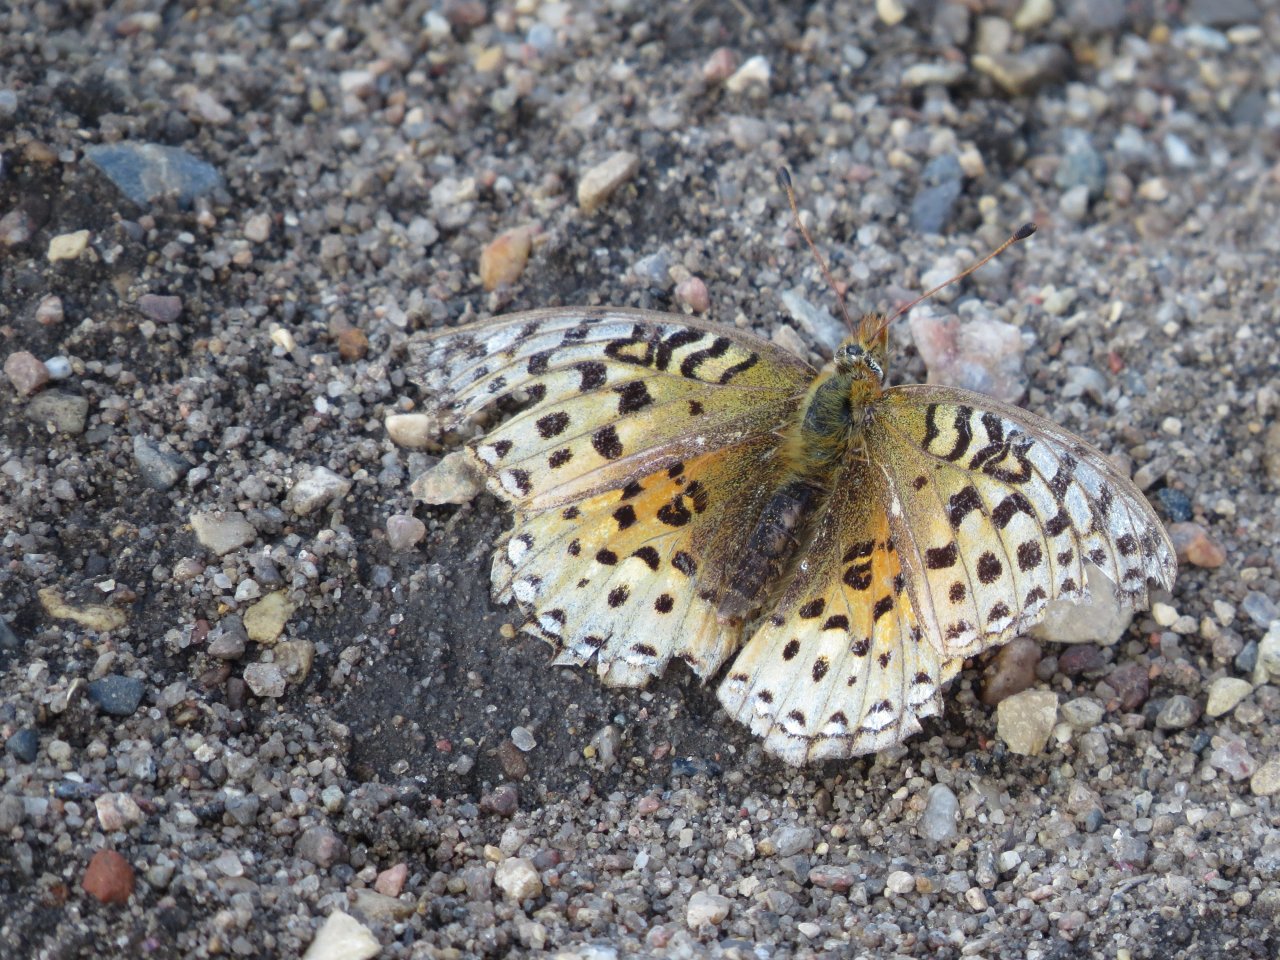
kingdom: Animalia
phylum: Arthropoda
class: Insecta
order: Lepidoptera
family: Nymphalidae
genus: Speyeria
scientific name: Speyeria aphrodite
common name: Aphrodite Fritillary
